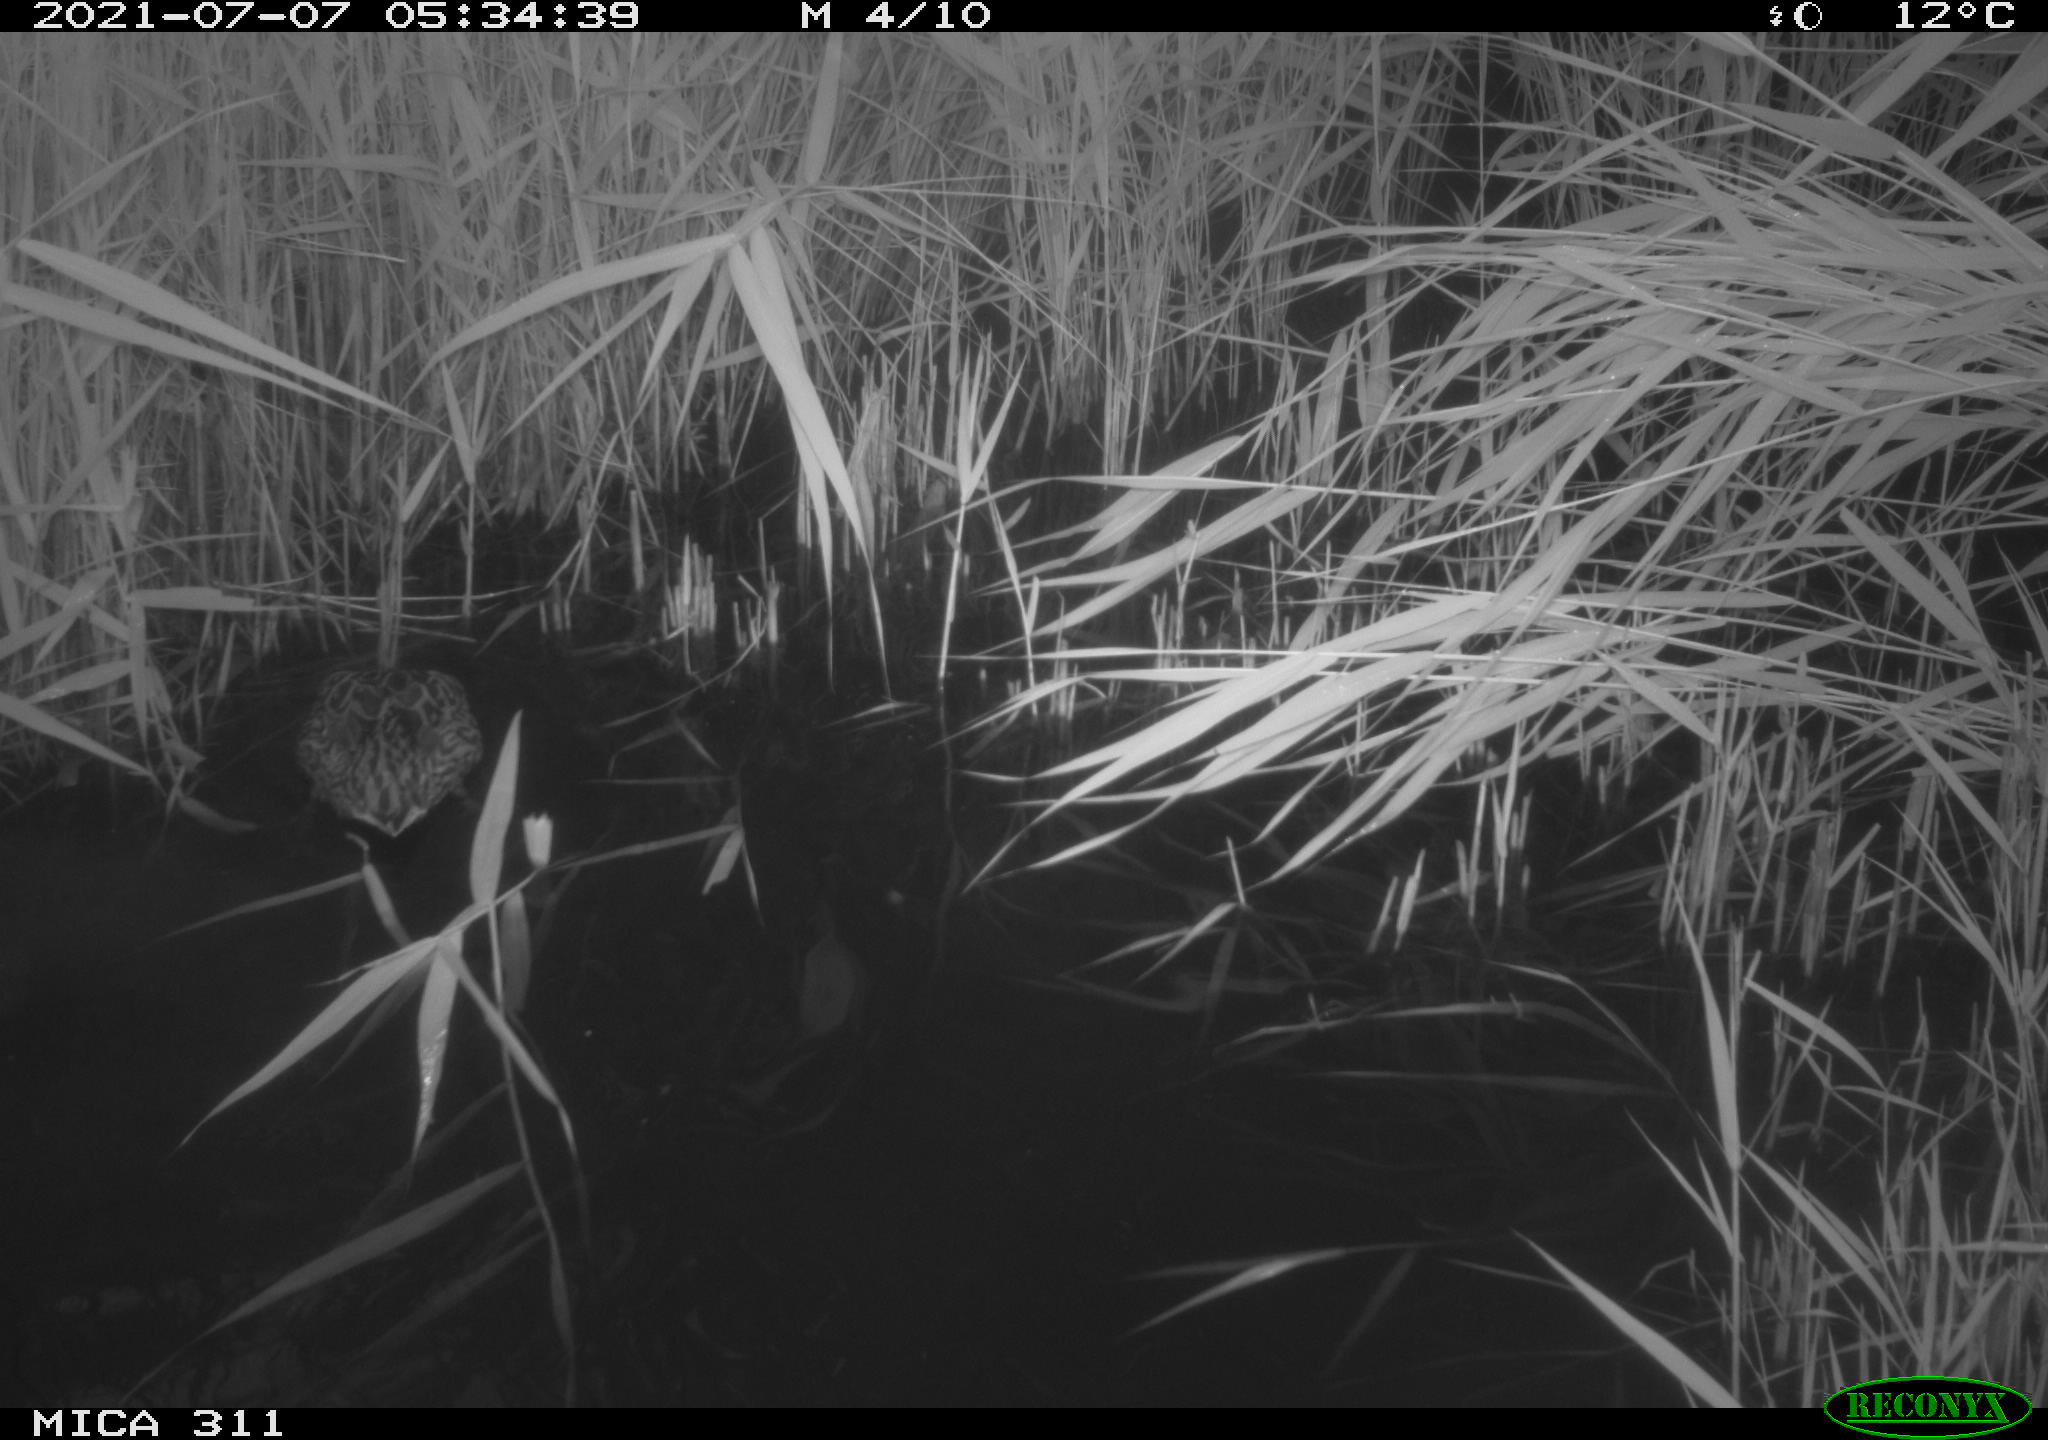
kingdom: Animalia
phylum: Chordata
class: Aves
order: Anseriformes
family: Anatidae
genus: Anas
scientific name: Anas
